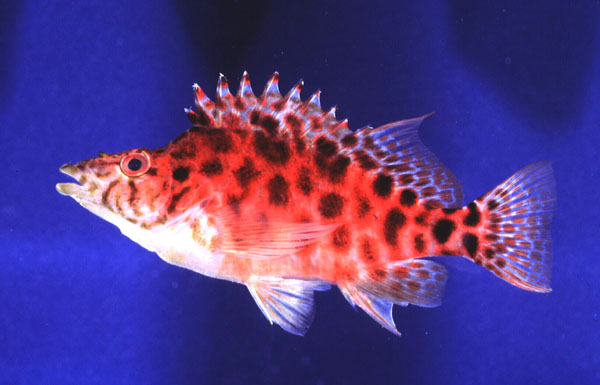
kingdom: Animalia
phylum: Chordata
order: Perciformes
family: Cirrhitidae
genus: Cirrhitichthys
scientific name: Cirrhitichthys guichenoti
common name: Cave hawkfish
